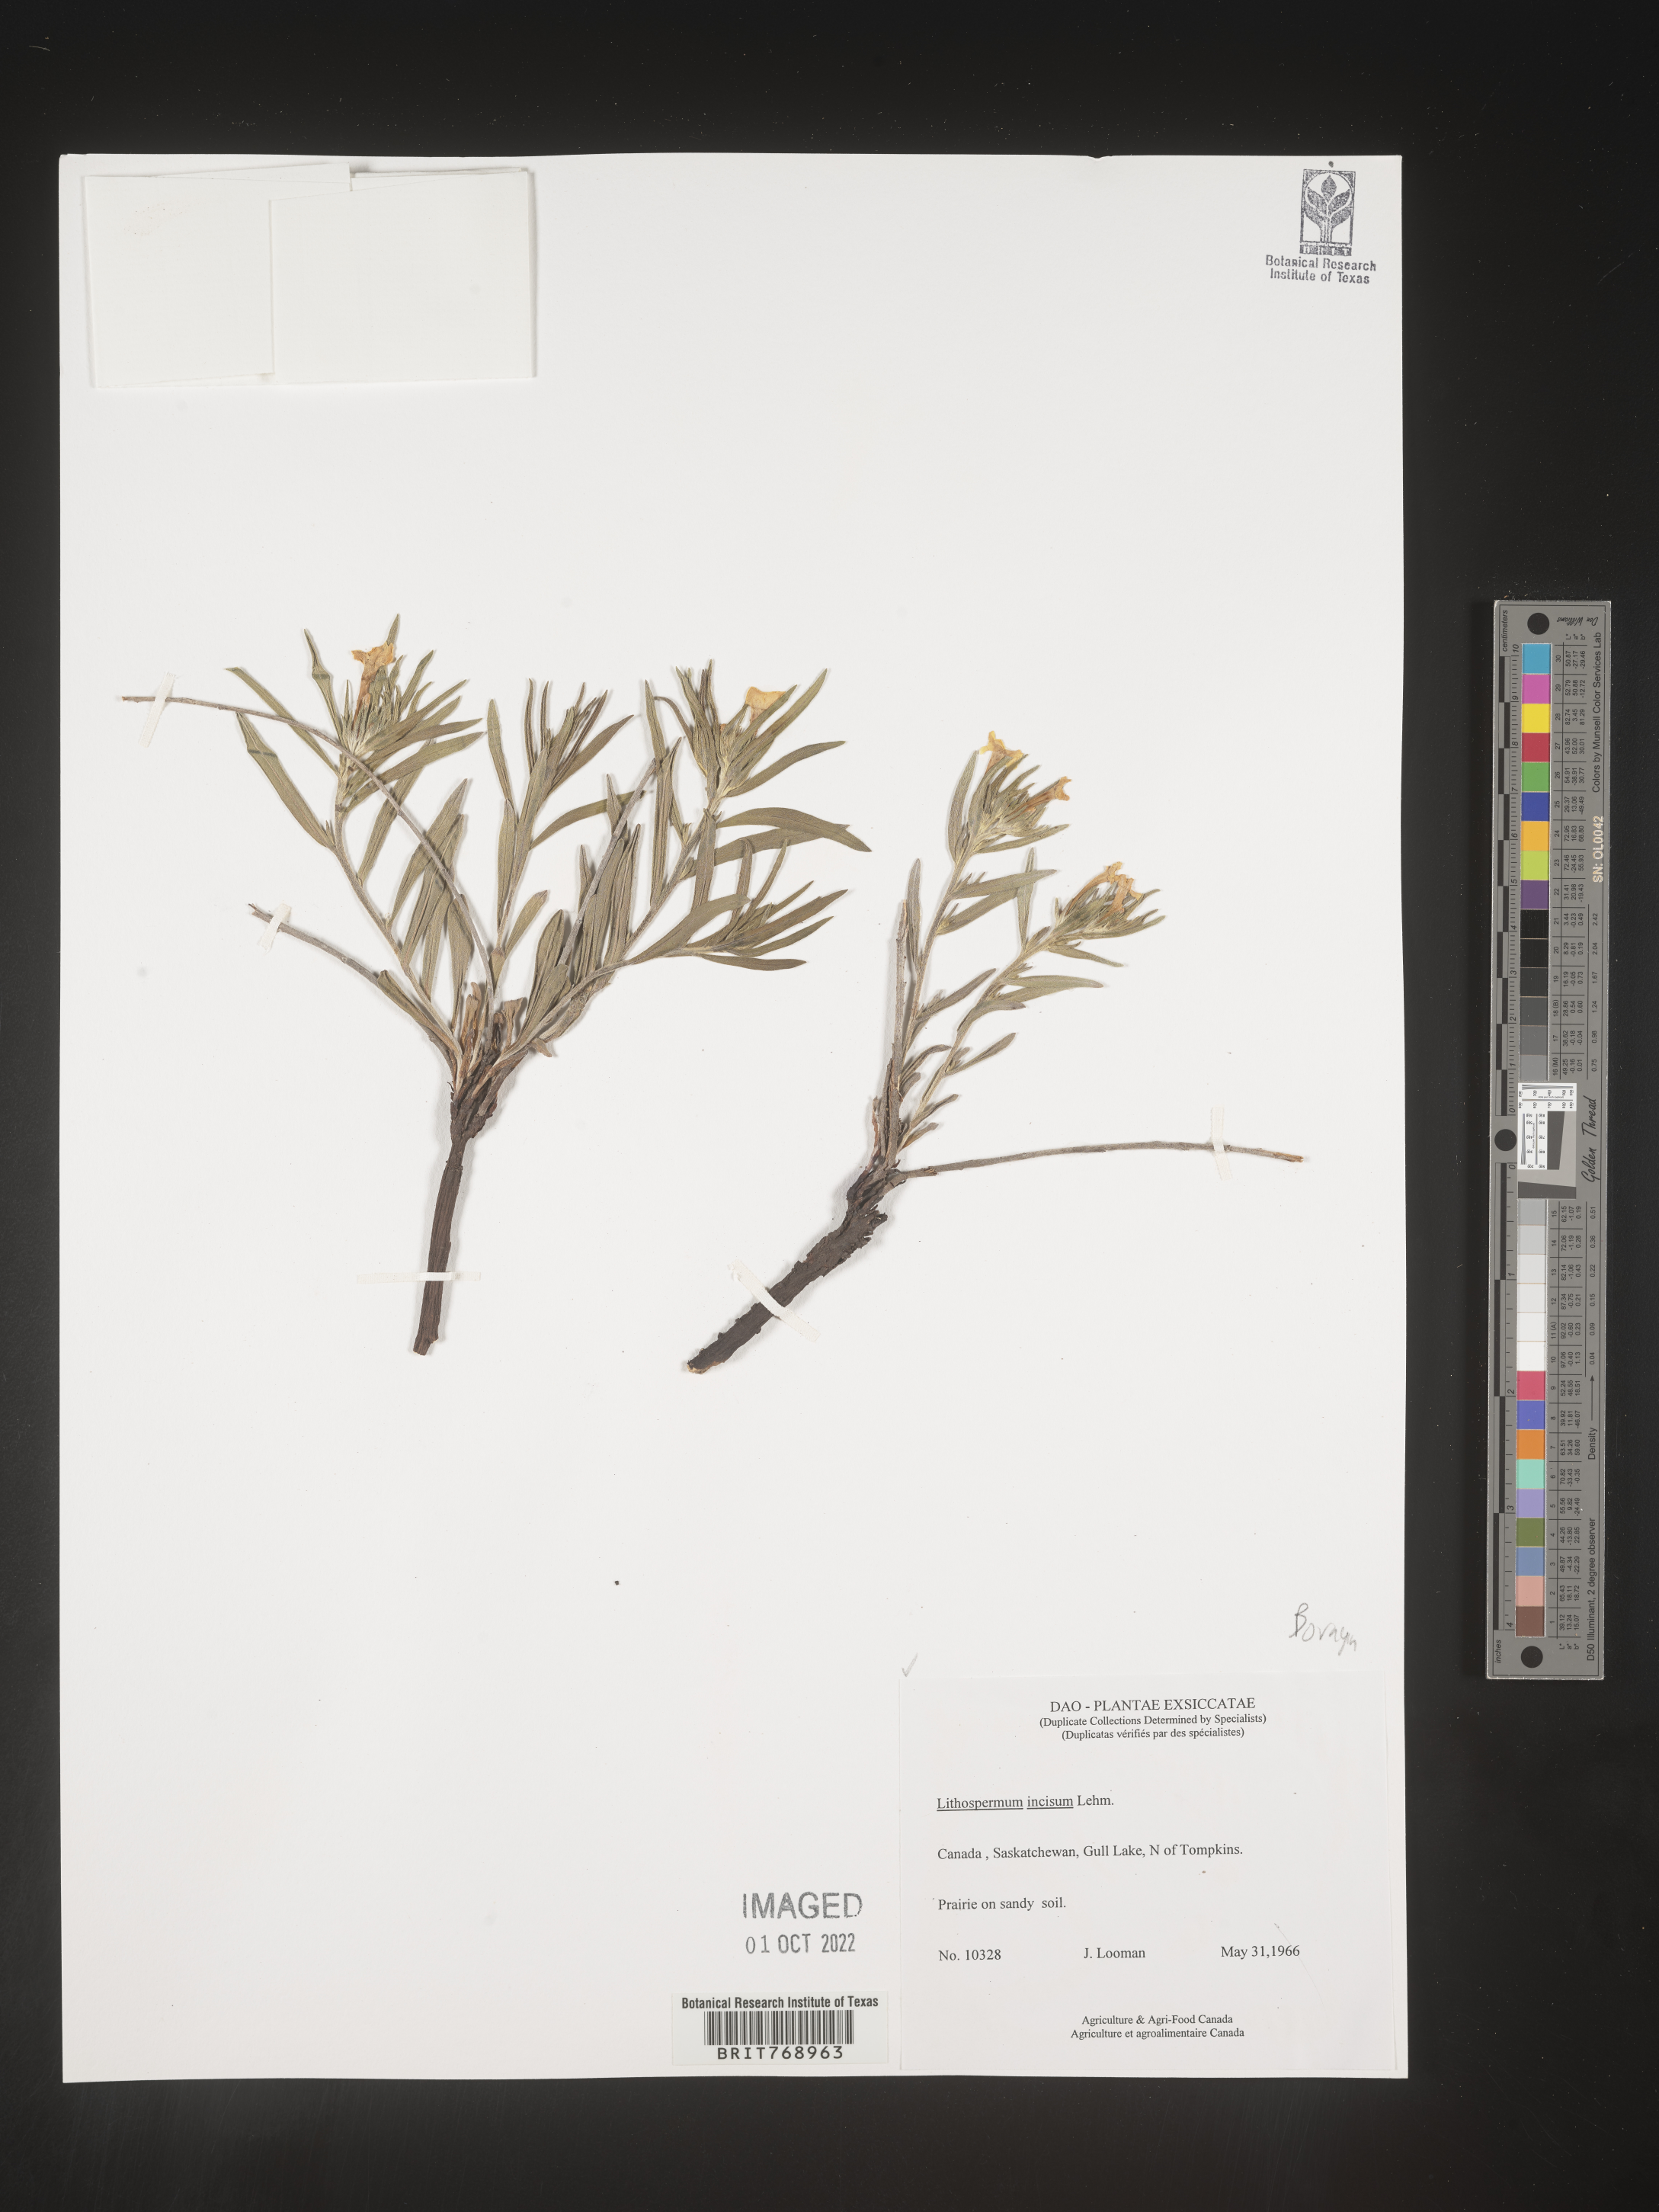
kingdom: Plantae
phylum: Tracheophyta
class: Magnoliopsida
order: Boraginales
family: Boraginaceae
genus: Lithospermum
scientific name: Lithospermum incisum
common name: Fringed gromwell
